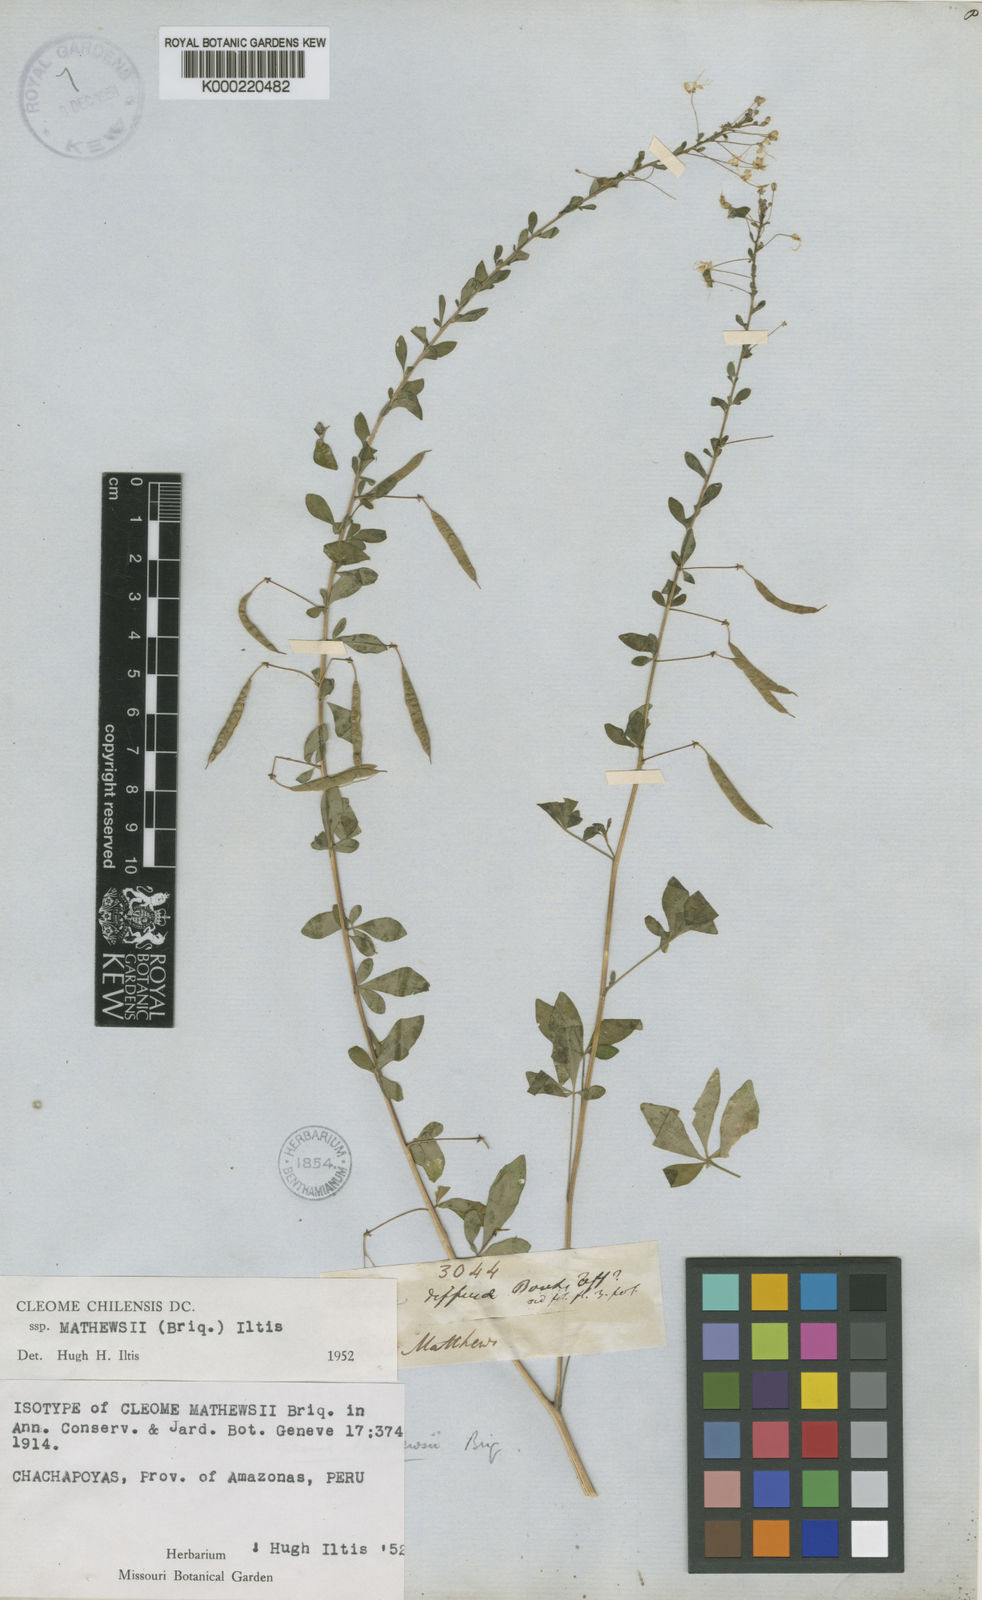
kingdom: Plantae
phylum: Tracheophyta
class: Magnoliopsida
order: Brassicales
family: Cleomaceae
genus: Andinocleome
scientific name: Andinocleome mathewsii
